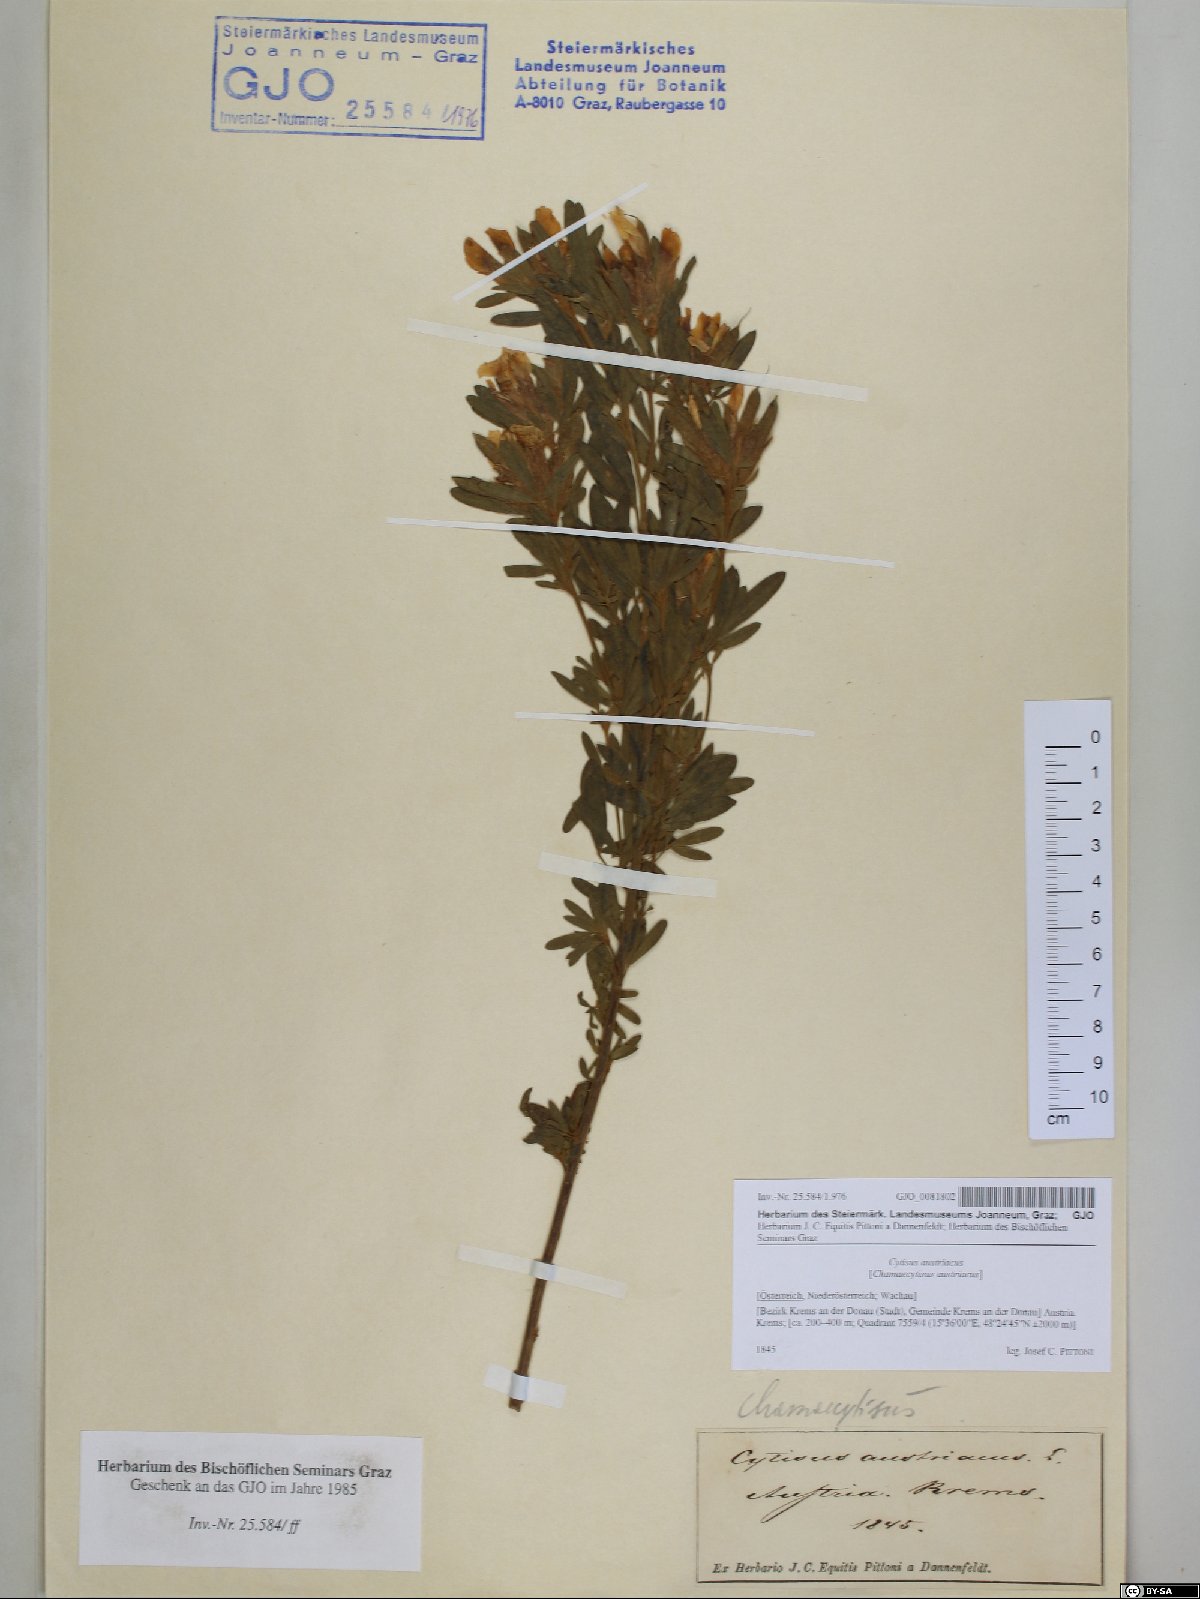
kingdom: Plantae
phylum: Tracheophyta
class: Magnoliopsida
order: Fabales
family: Fabaceae
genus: Chamaecytisus
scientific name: Chamaecytisus austriacus
